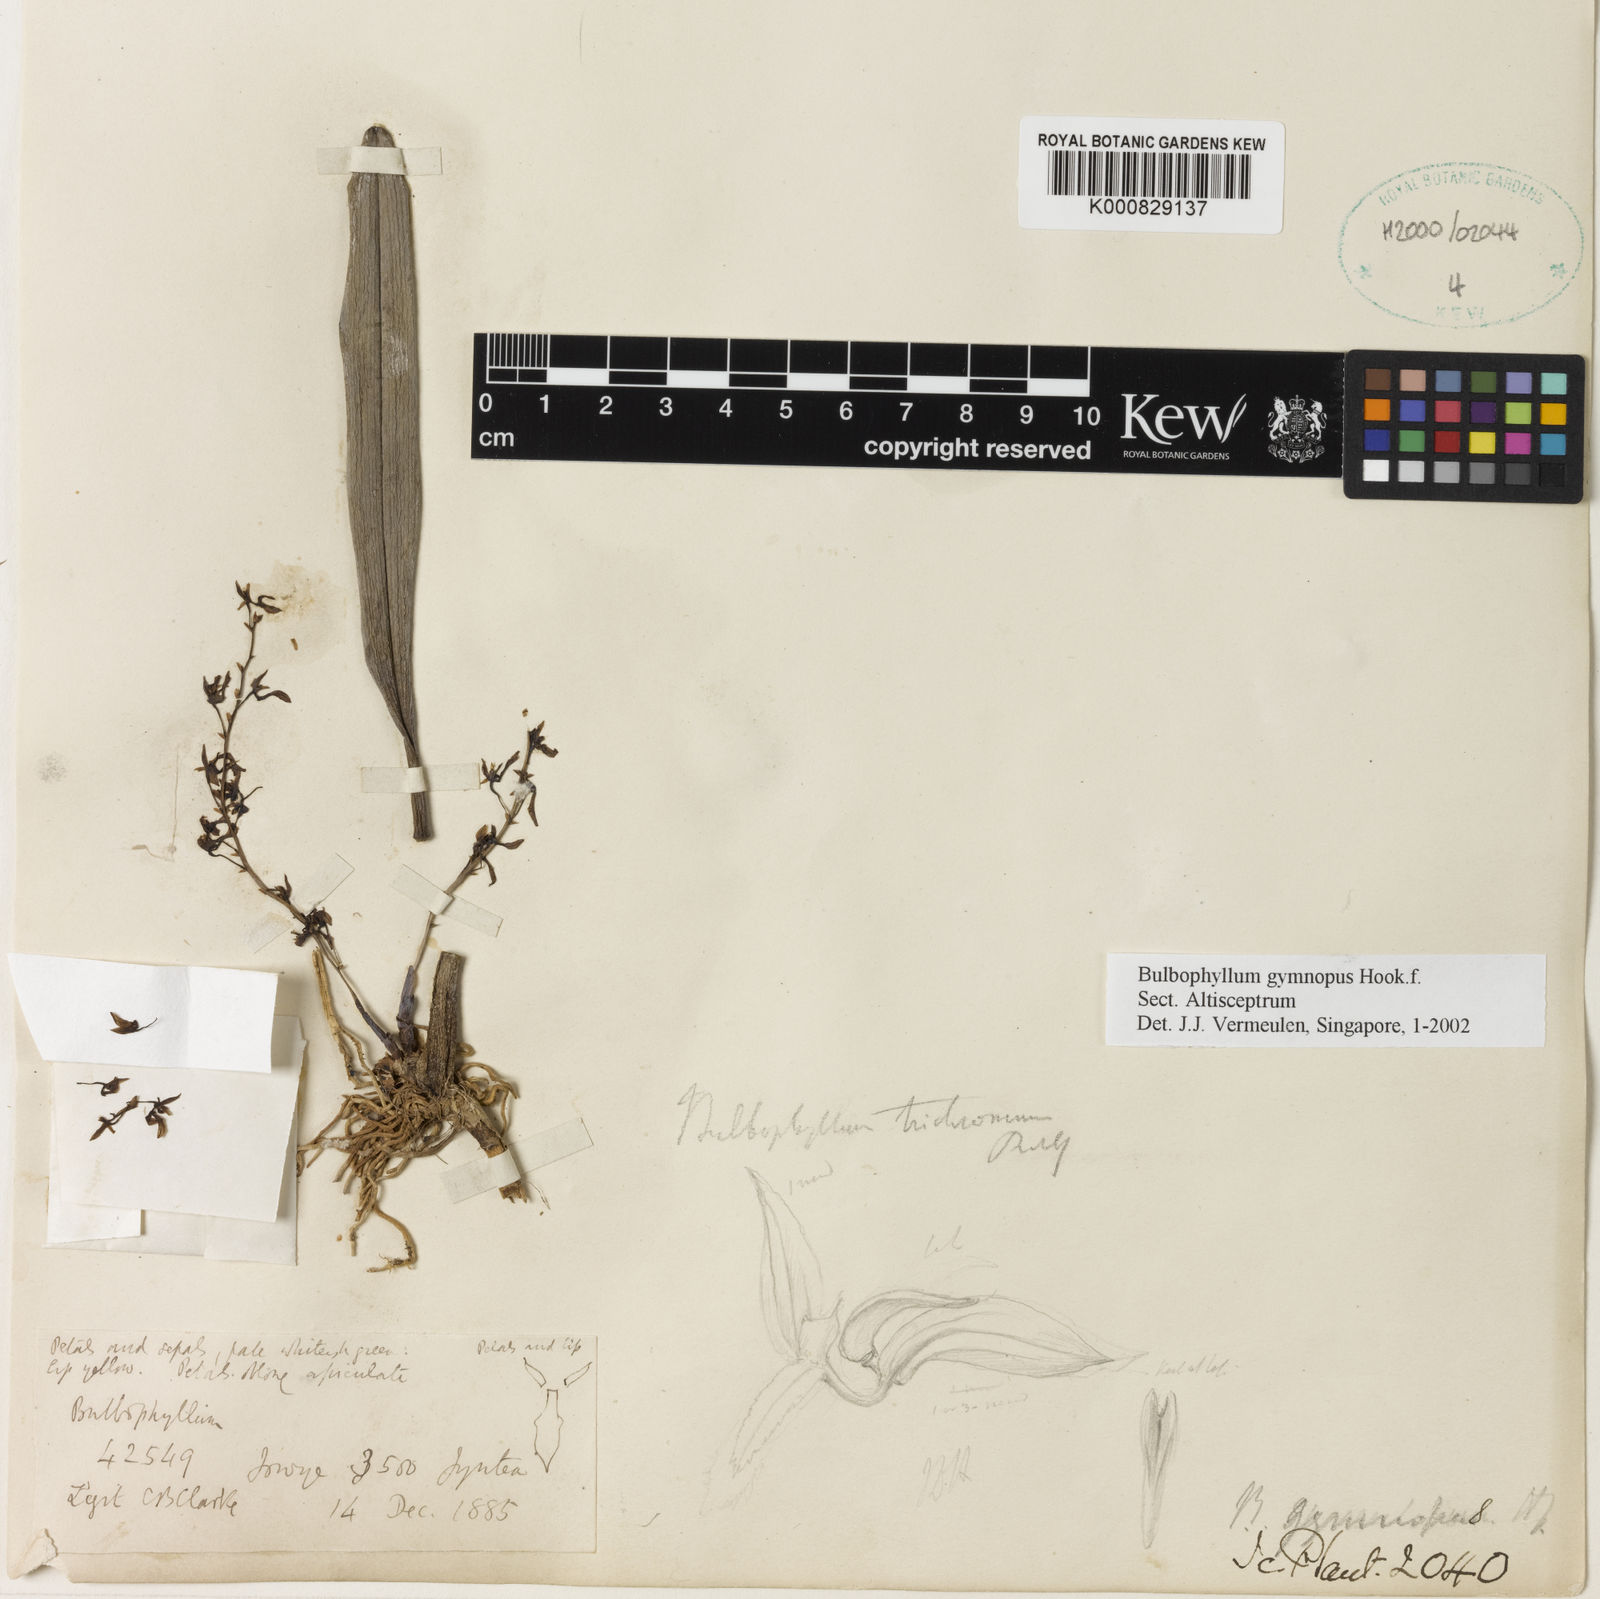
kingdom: Plantae
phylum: Tracheophyta
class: Liliopsida
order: Asparagales
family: Orchidaceae
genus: Bulbophyllum
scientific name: Bulbophyllum gymnopus
